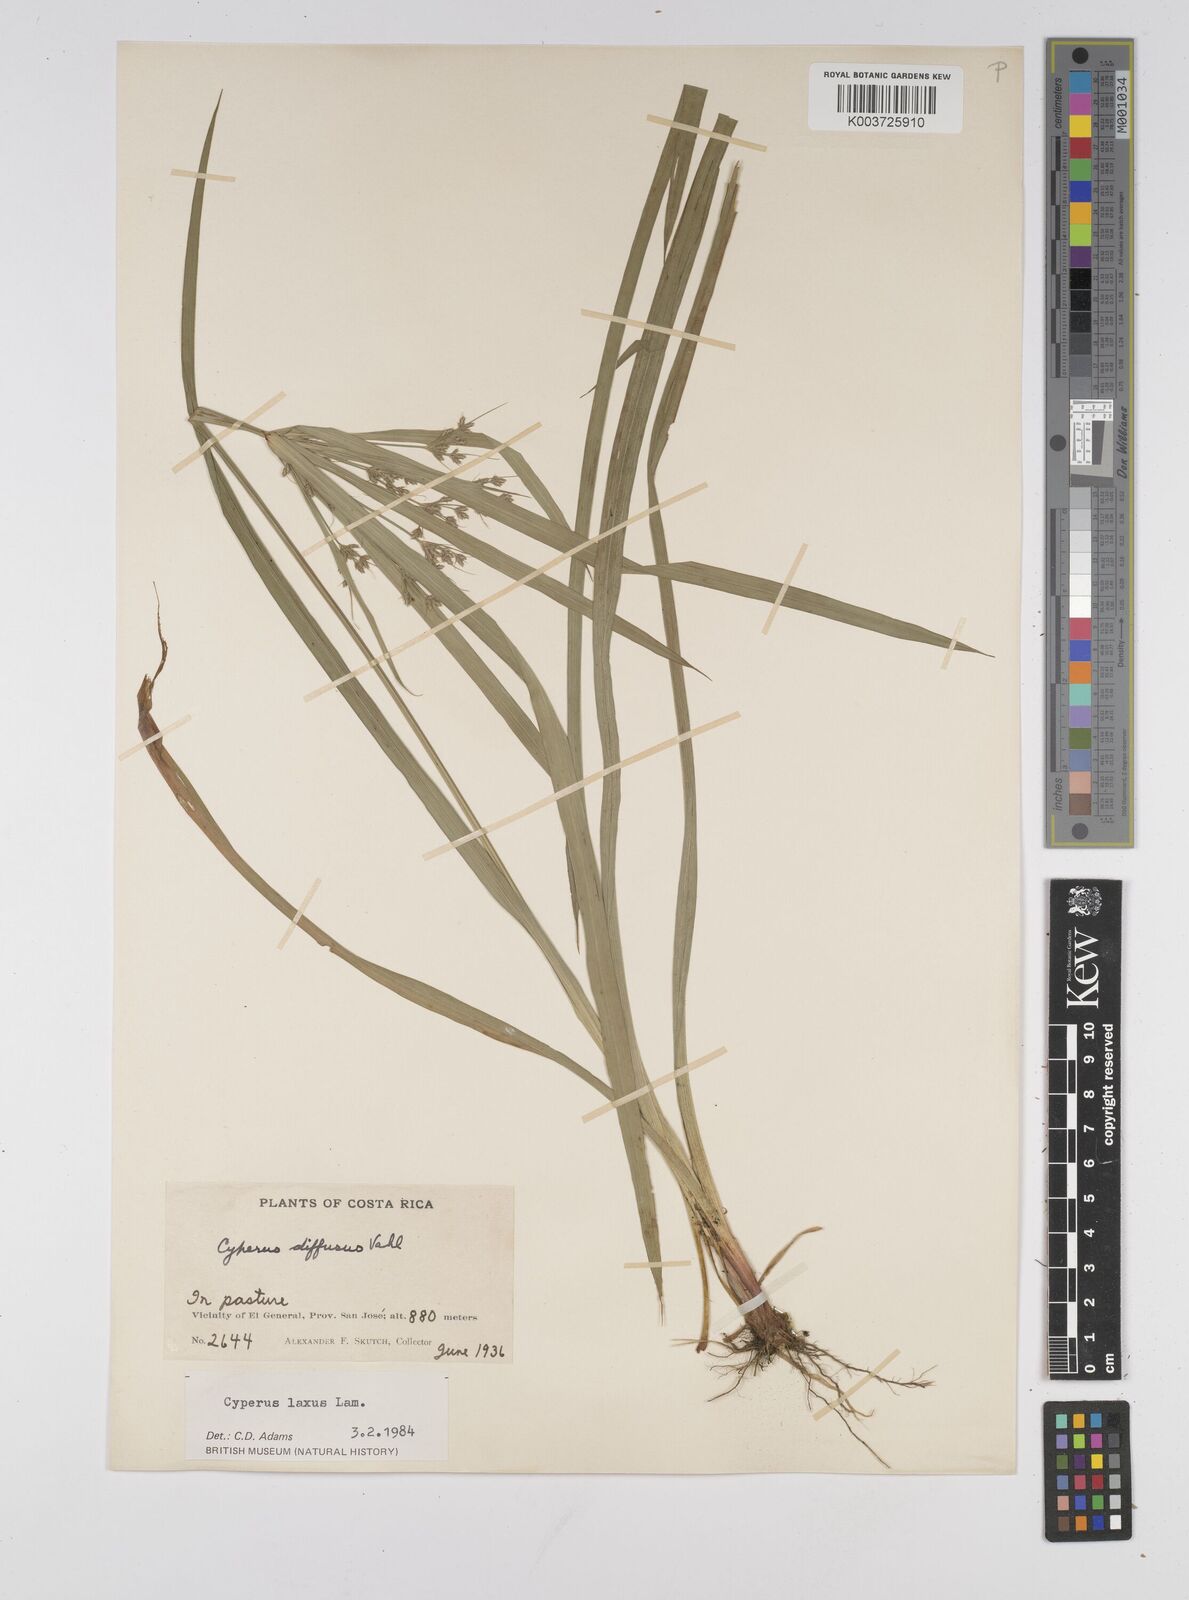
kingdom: Plantae
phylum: Tracheophyta
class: Liliopsida
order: Poales
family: Cyperaceae
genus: Cyperus
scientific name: Cyperus chalaranthus
